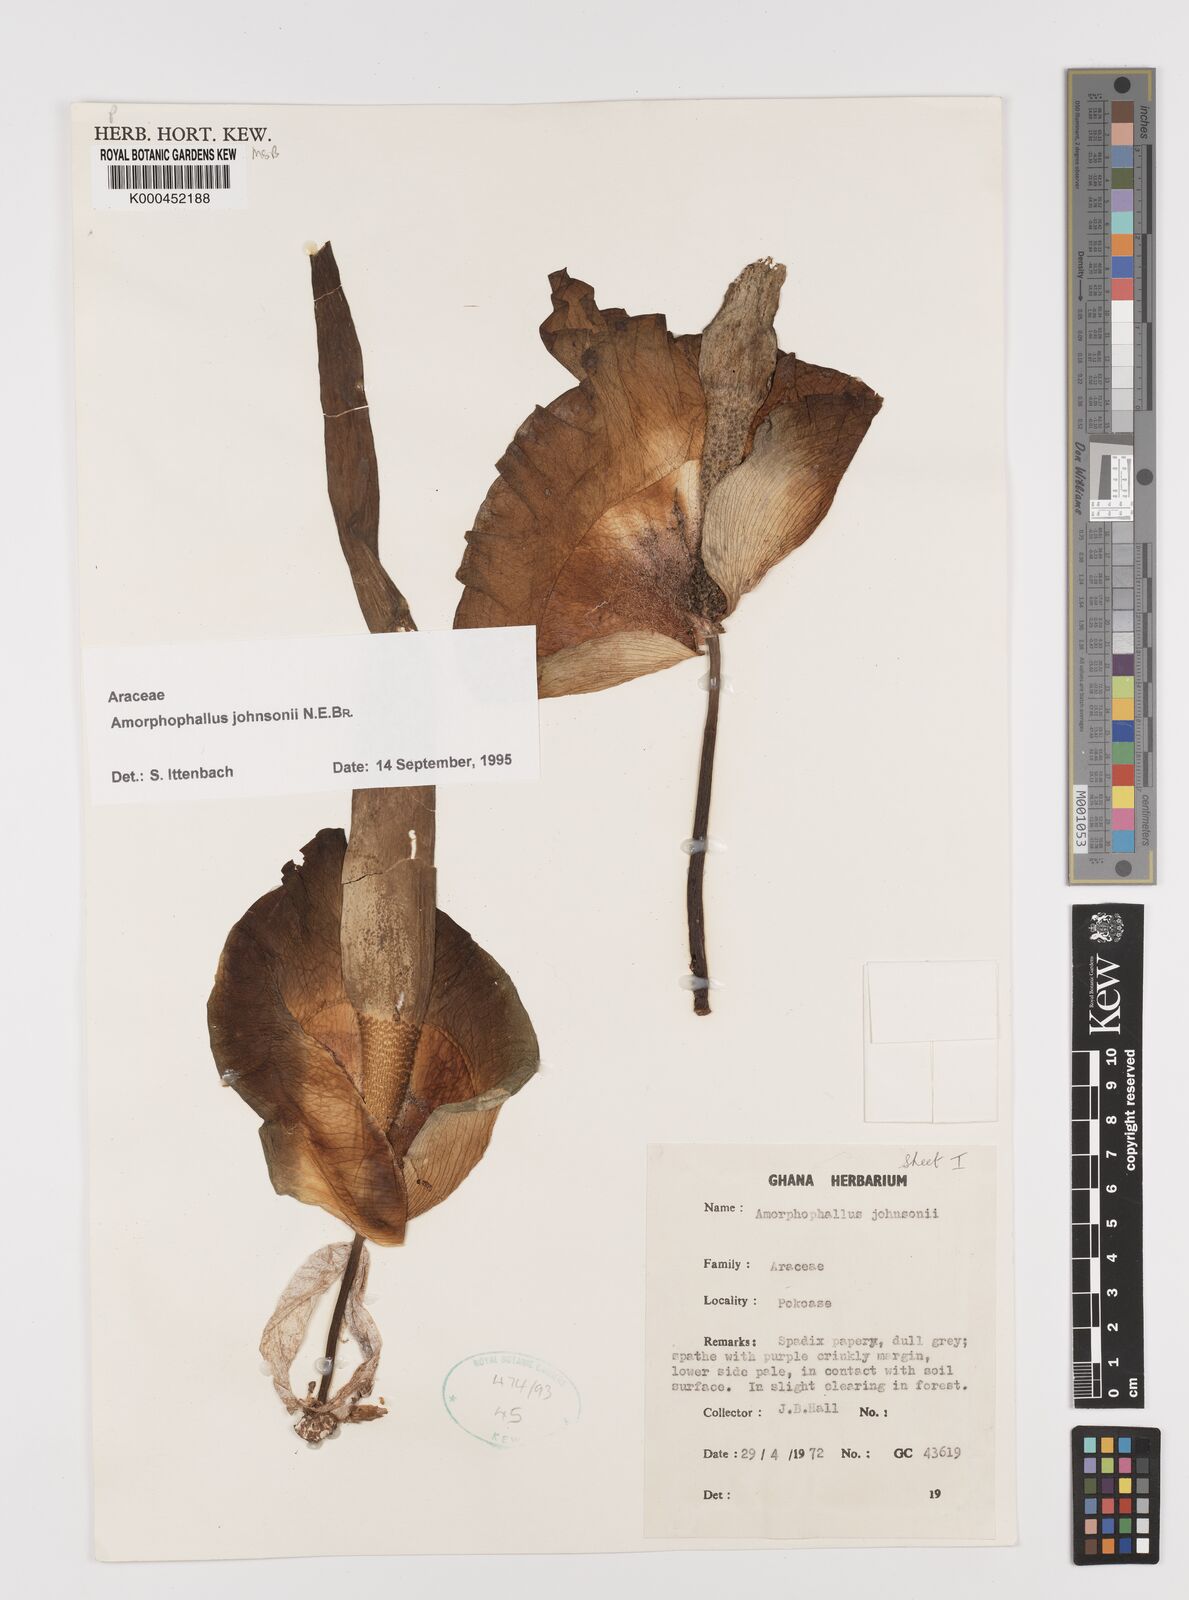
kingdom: Plantae
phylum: Tracheophyta
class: Liliopsida
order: Alismatales
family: Araceae
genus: Amorphophallus
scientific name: Amorphophallus johnsonii
